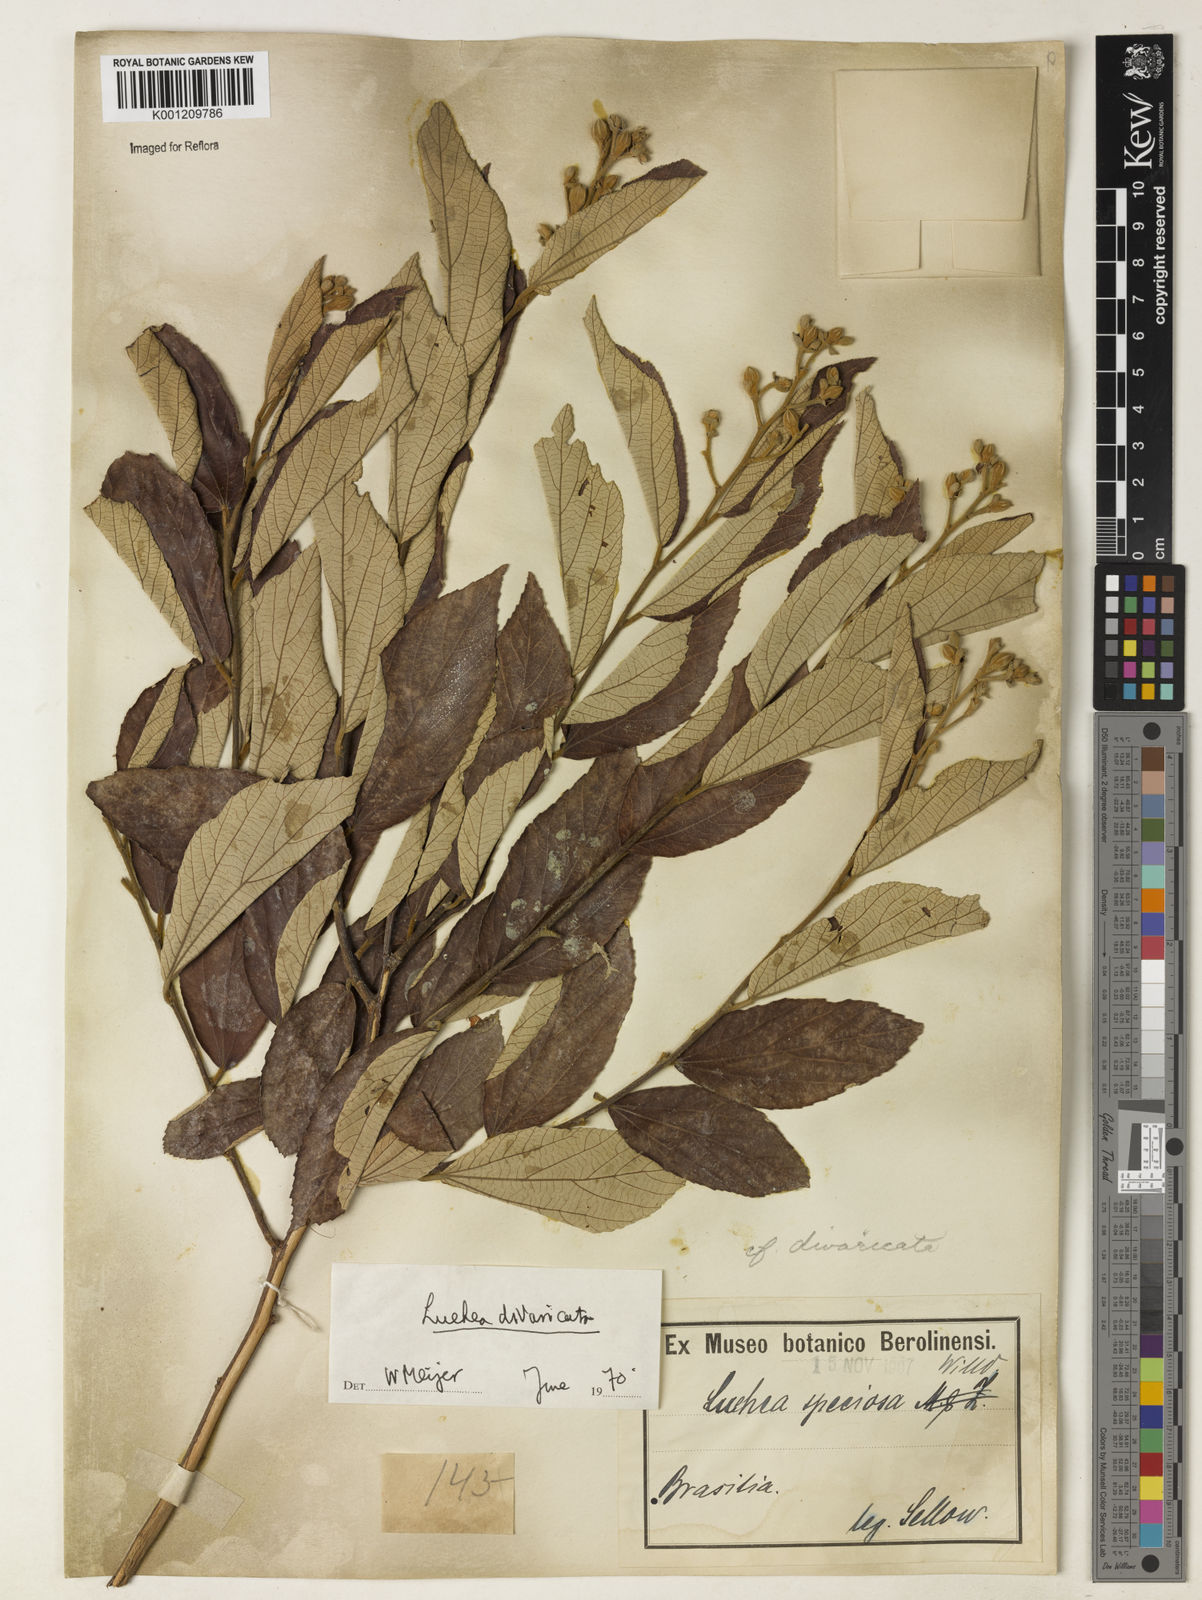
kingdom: Plantae
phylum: Tracheophyta
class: Magnoliopsida
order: Malvales
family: Malvaceae
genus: Luehea
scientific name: Luehea divaricata
